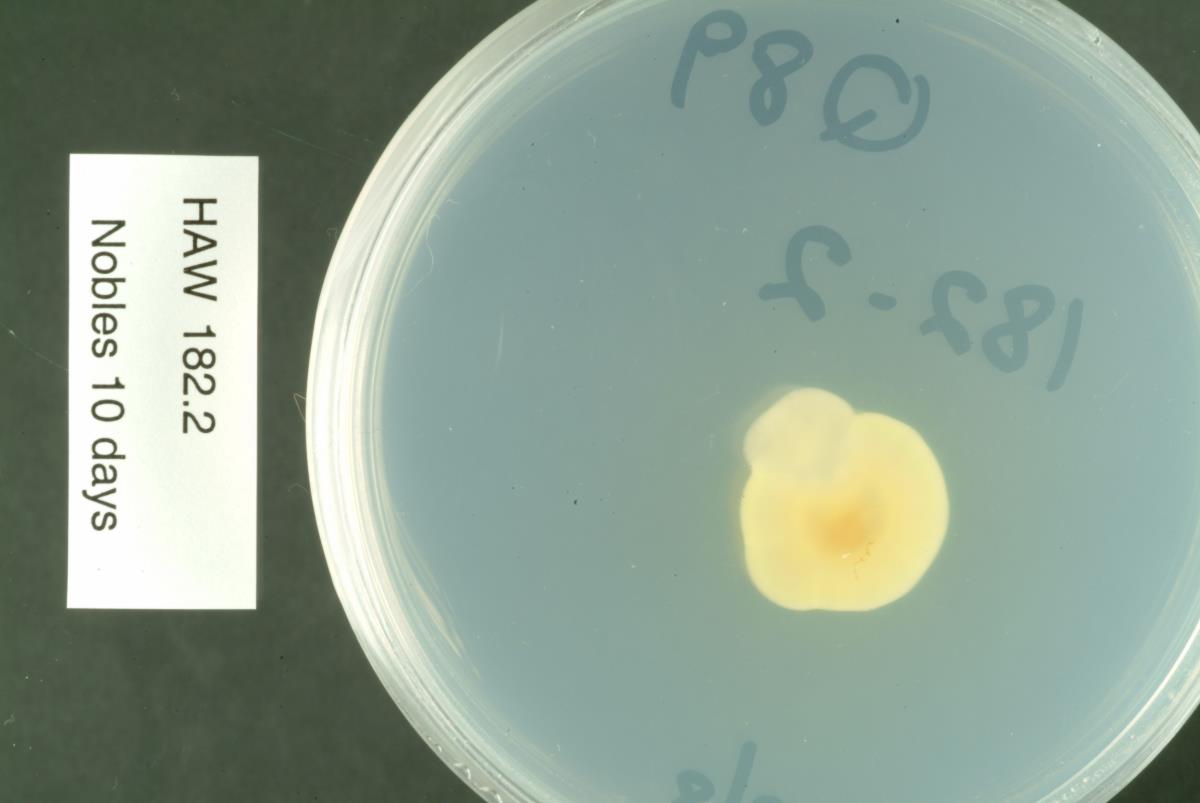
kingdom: Fungi
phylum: Ascomycota
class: Leotiomycetes
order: Rhytismatales
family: Rhytismataceae
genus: Lophodermium
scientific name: Lophodermium agathidis
